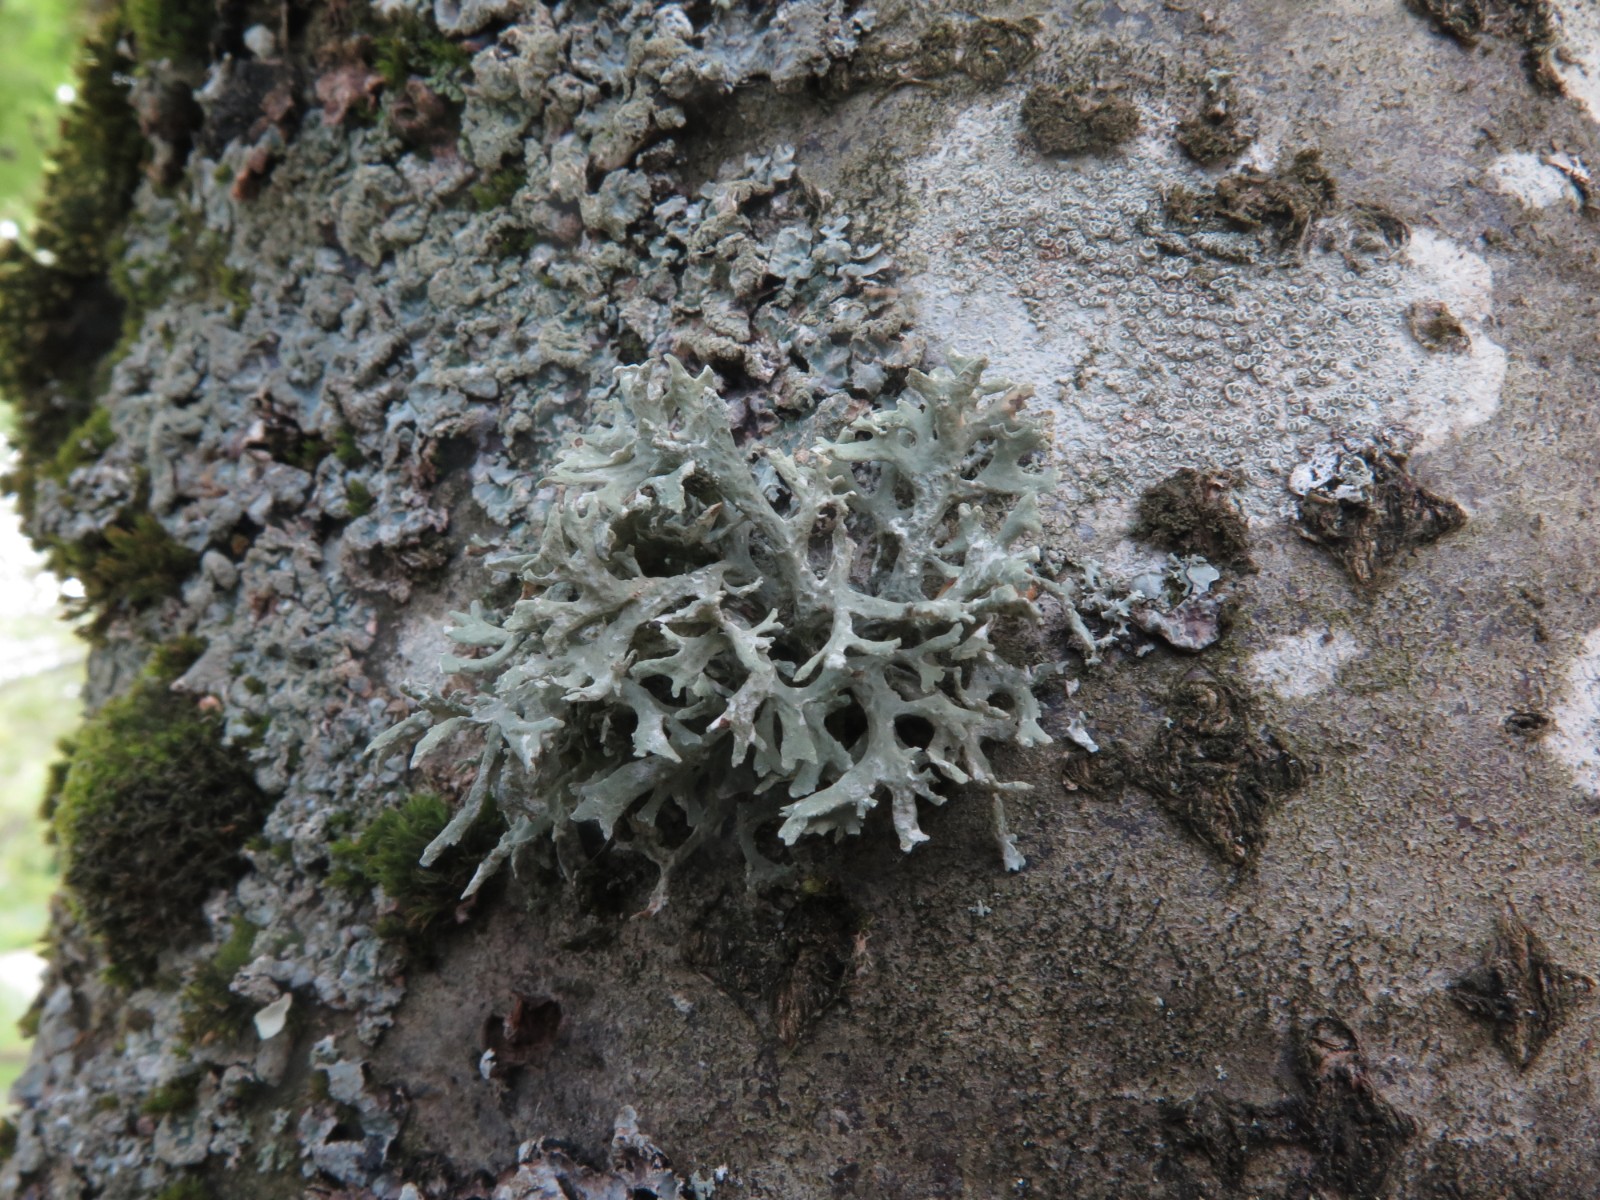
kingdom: Fungi
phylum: Ascomycota
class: Lecanoromycetes
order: Lecanorales
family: Parmeliaceae
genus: Evernia
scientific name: Evernia prunastri
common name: almindelig slåenlav
